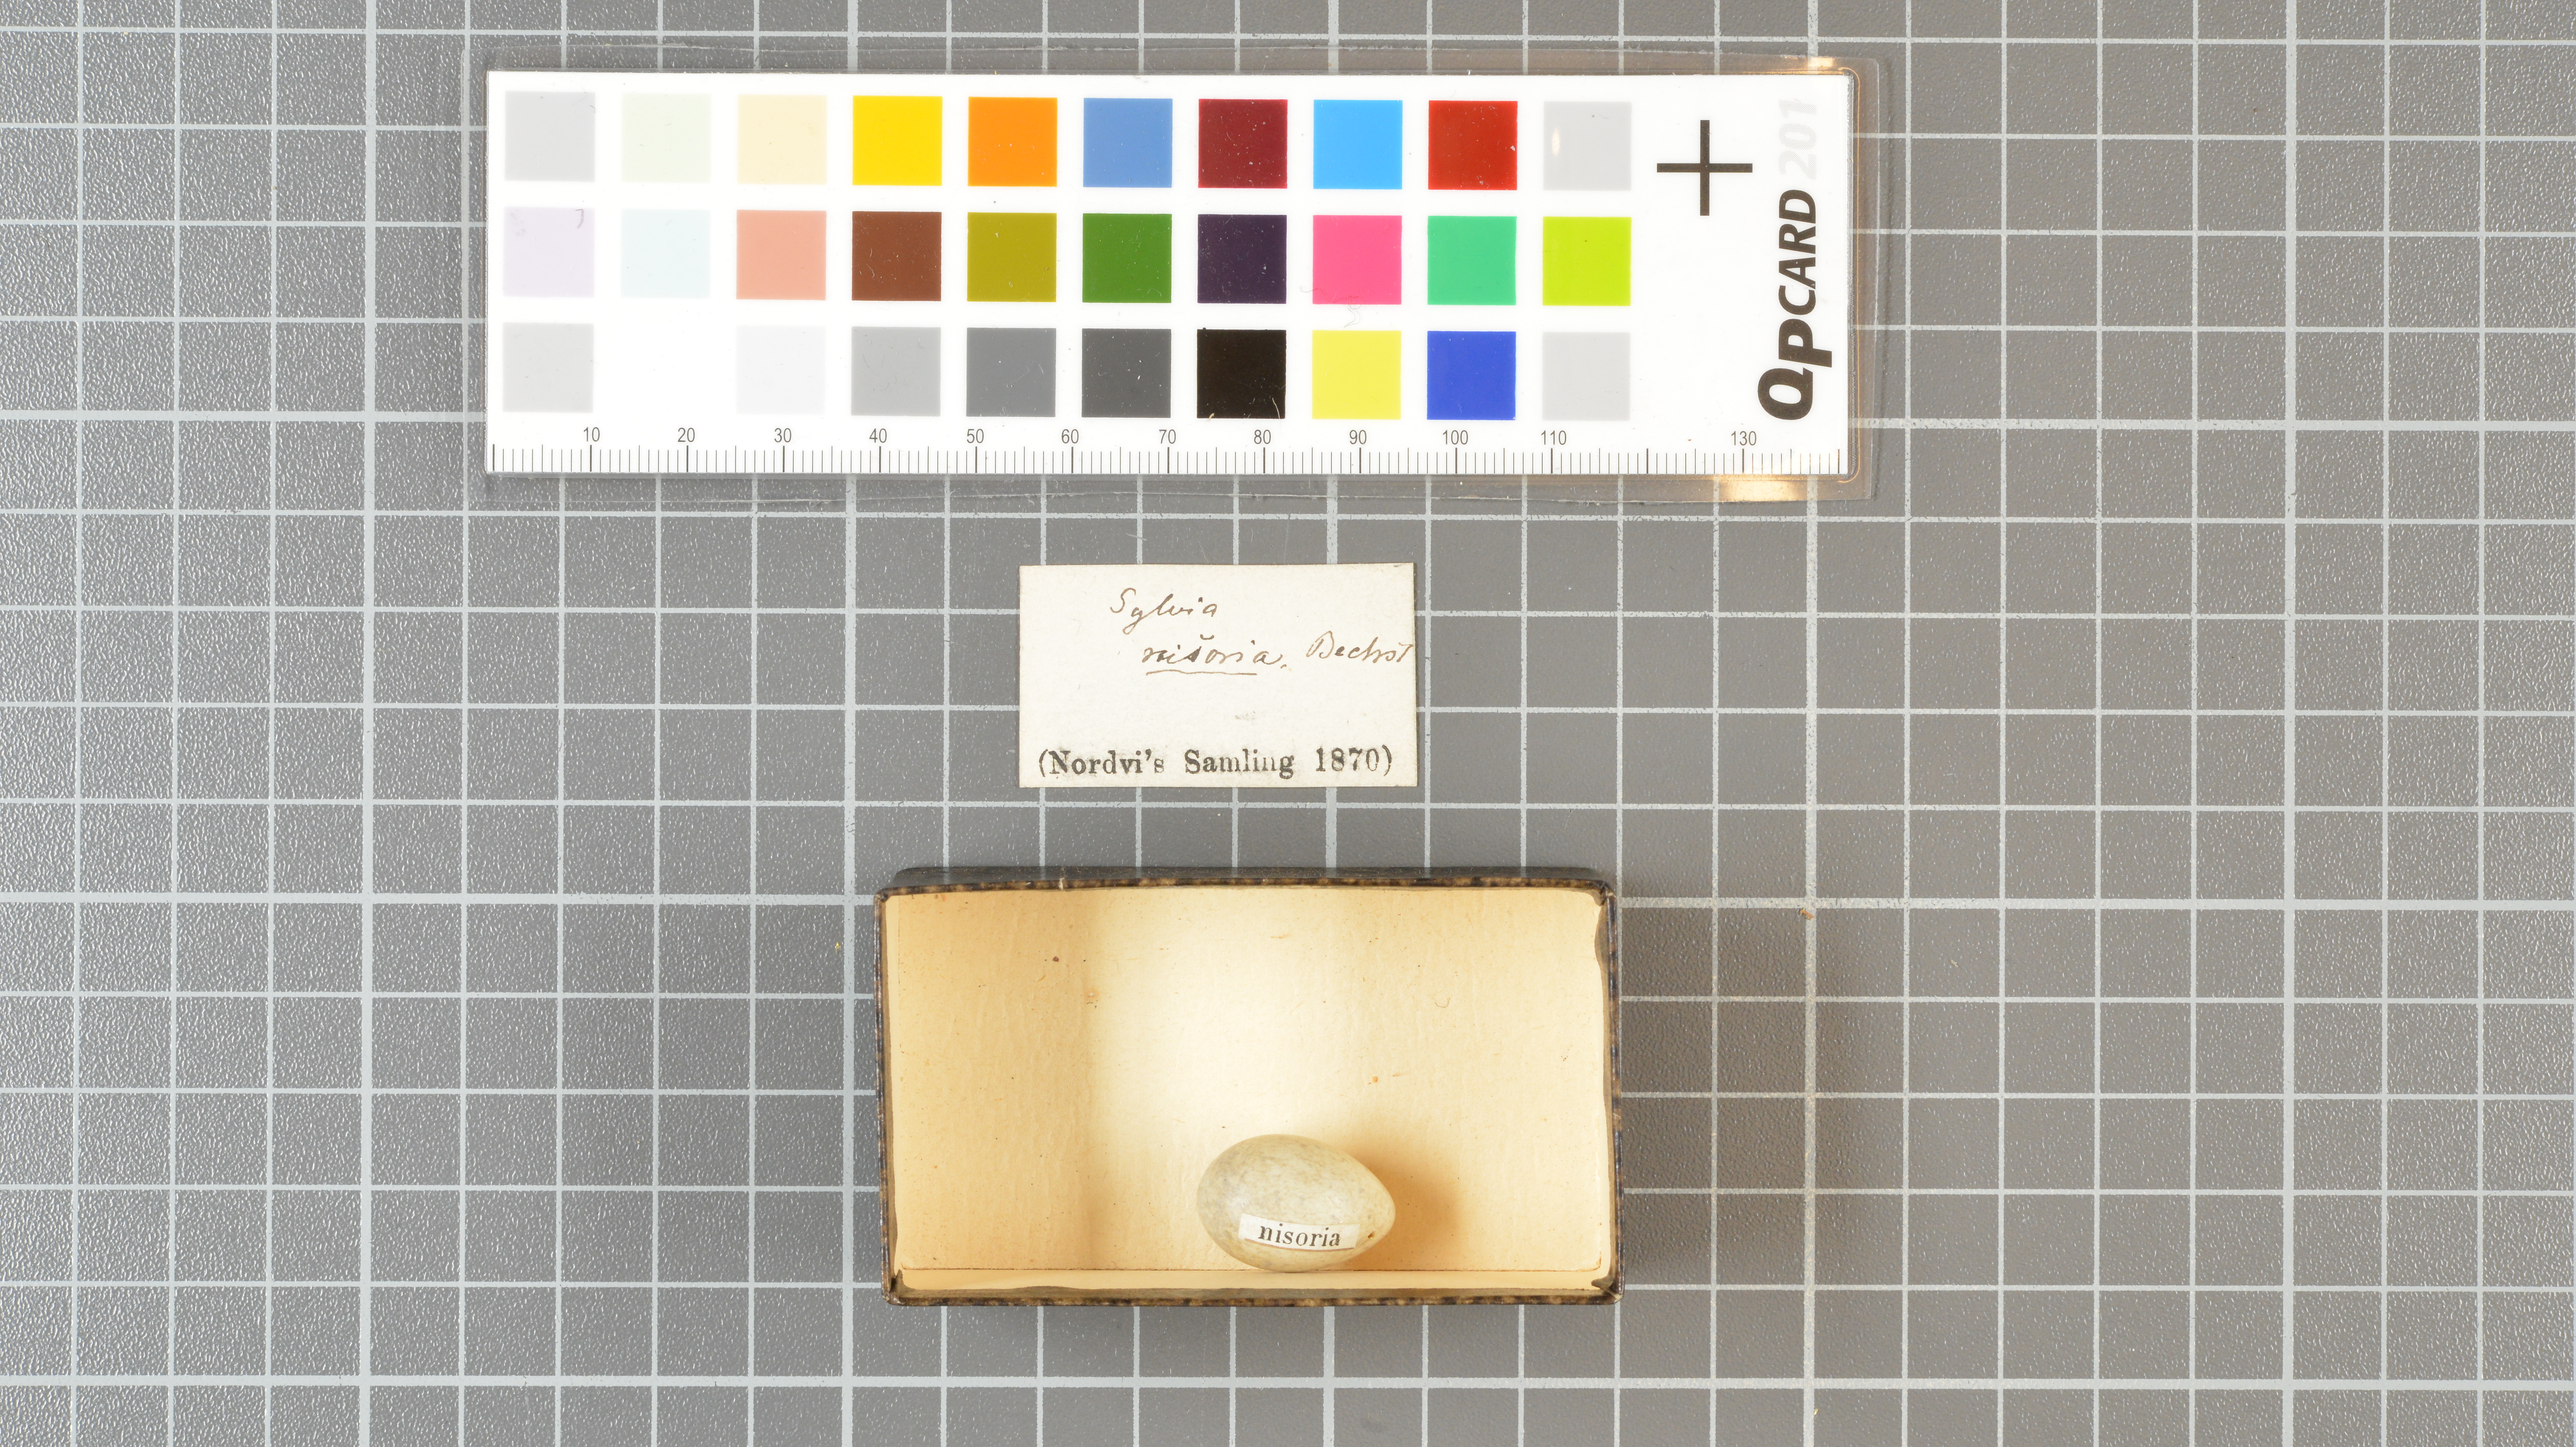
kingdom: Animalia
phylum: Chordata
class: Aves
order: Passeriformes
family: Sylviidae
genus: Sylvia
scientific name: Sylvia nisoria
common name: Barred warbler
